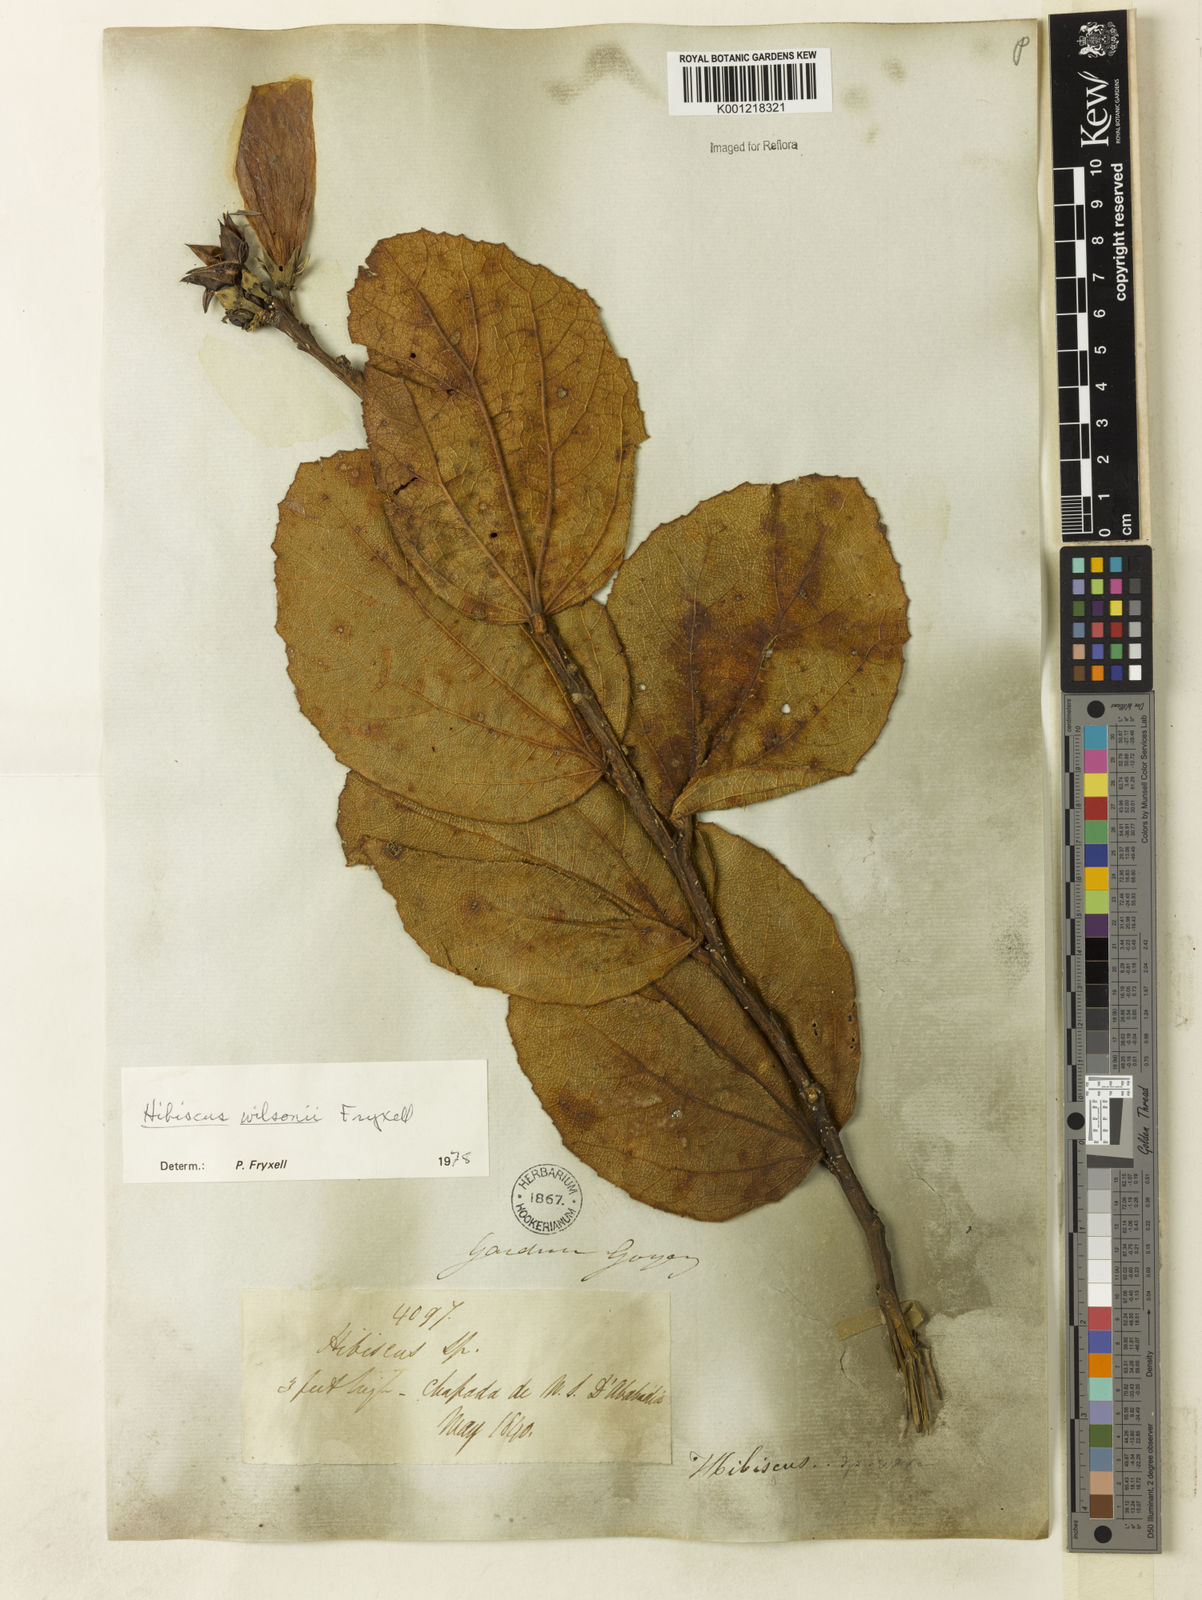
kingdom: Plantae
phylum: Tracheophyta
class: Magnoliopsida
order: Malvales
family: Malvaceae
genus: Hibiscus
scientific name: Hibiscus wilsonii
